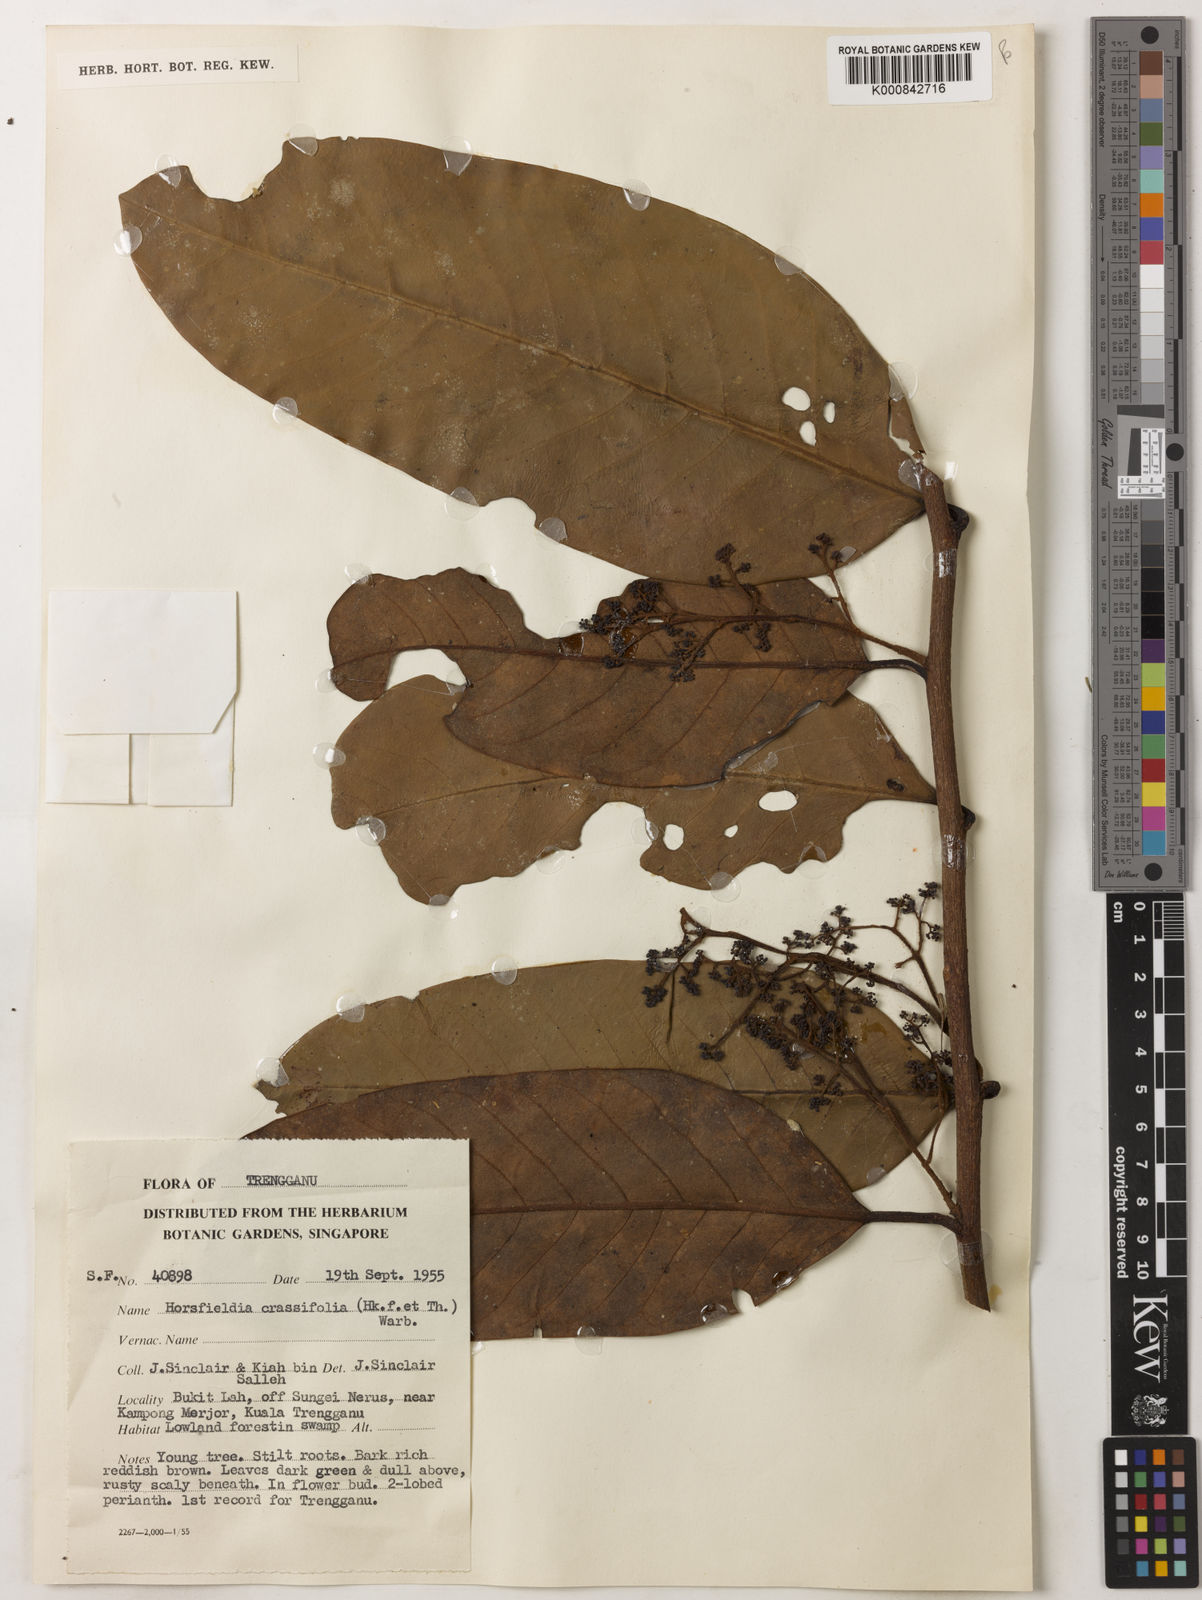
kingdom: Plantae
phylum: Tracheophyta
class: Magnoliopsida
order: Magnoliales
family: Myristicaceae
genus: Horsfieldia
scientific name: Horsfieldia crassifolia
